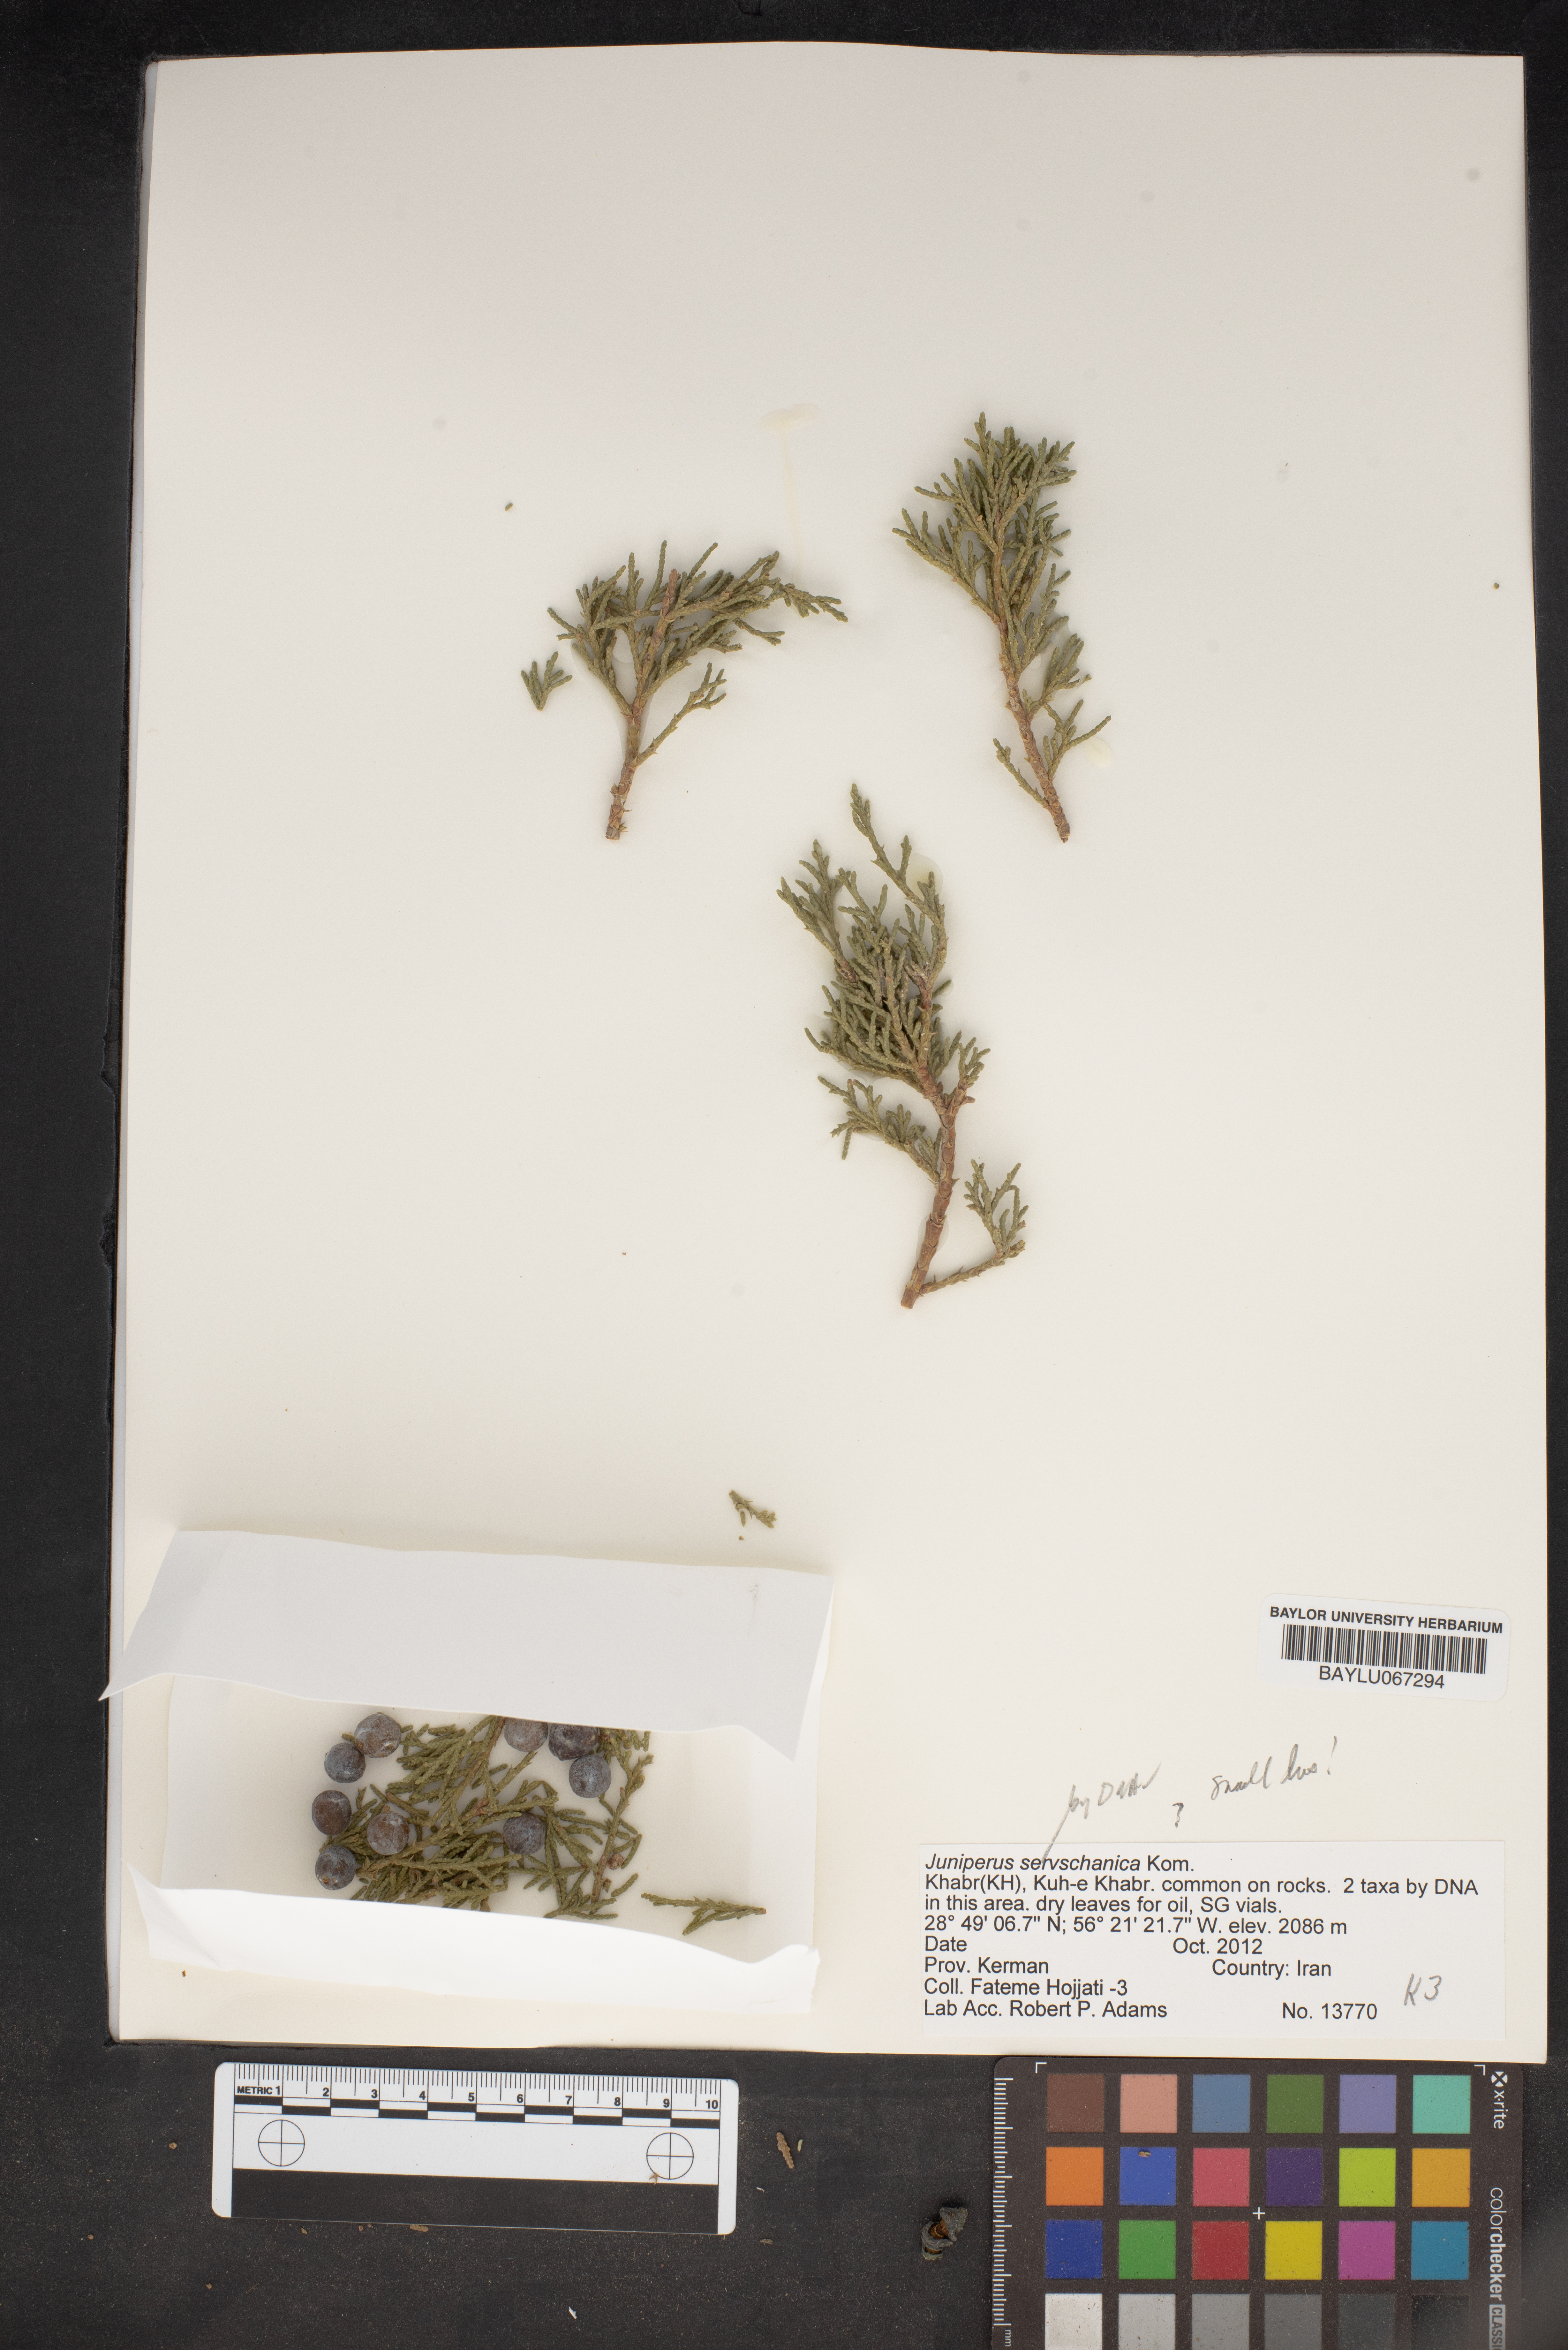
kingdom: Plantae
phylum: Tracheophyta
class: Pinopsida
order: Pinales
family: Cupressaceae
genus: Juniperus
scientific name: Juniperus excelsa
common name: Crimean juniper
